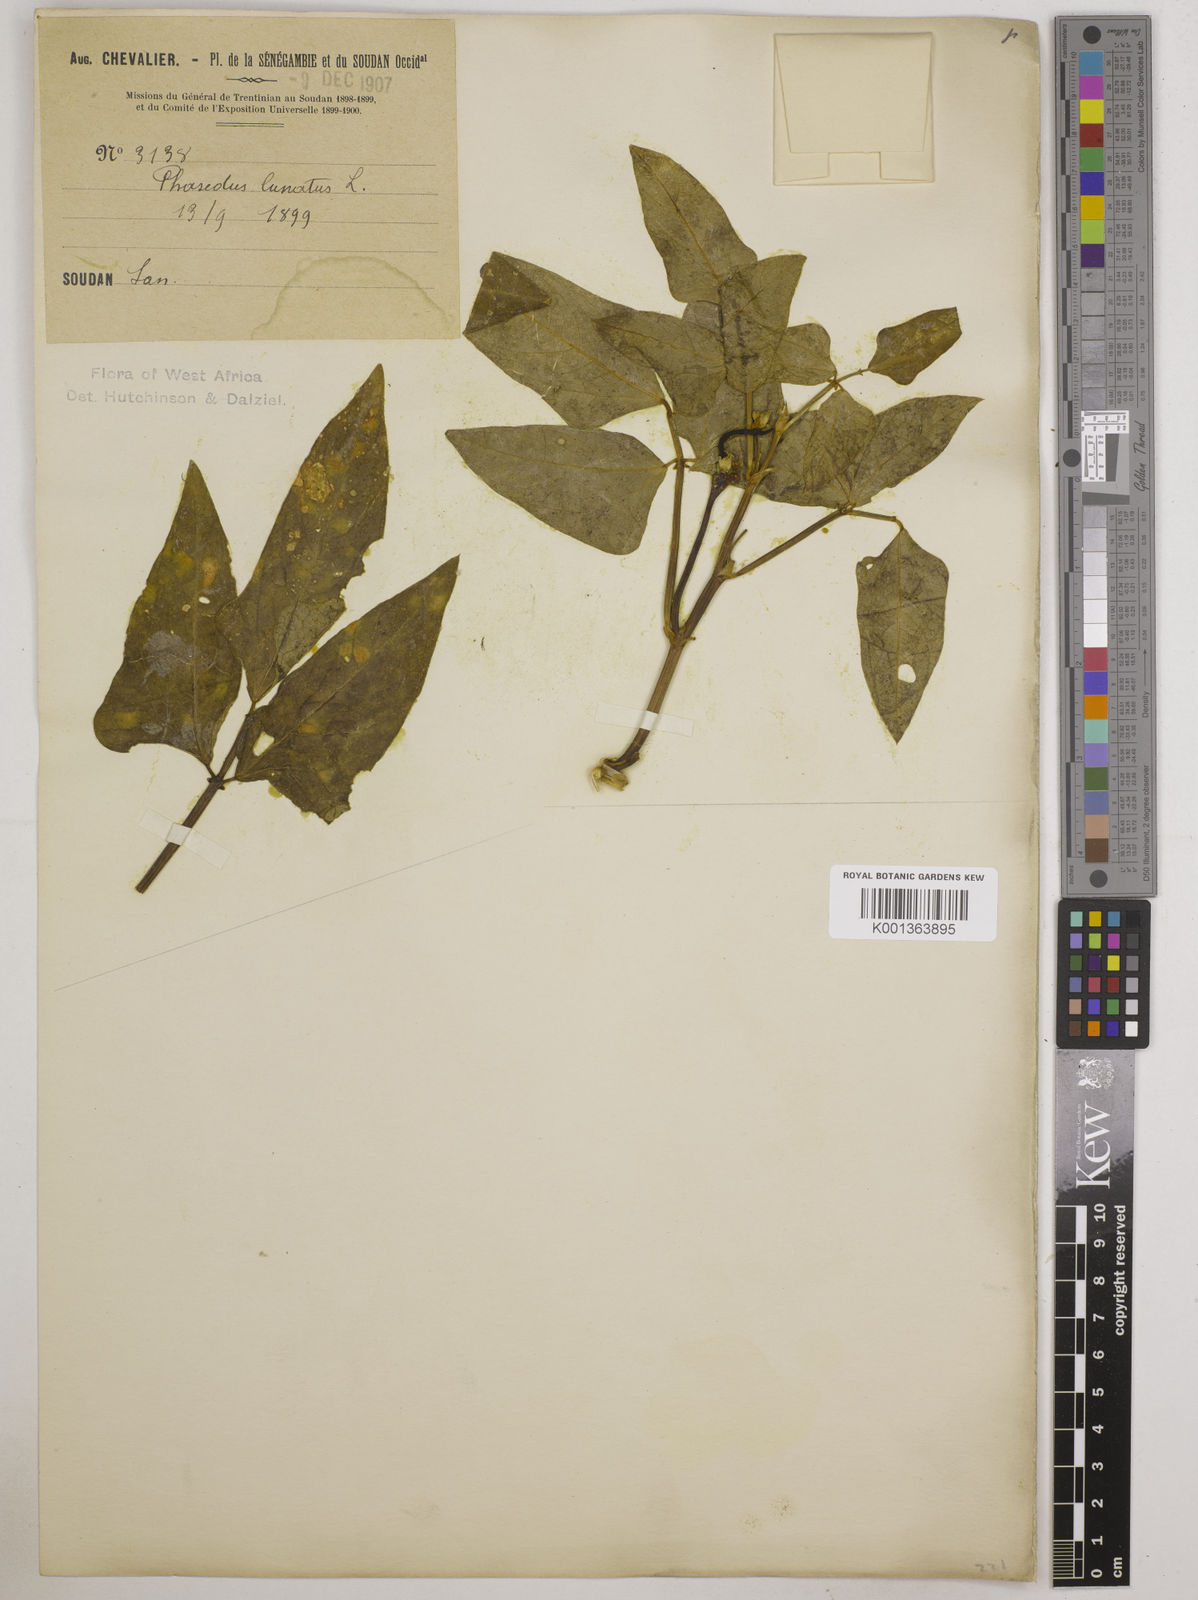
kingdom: Plantae
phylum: Tracheophyta
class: Magnoliopsida
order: Fabales
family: Fabaceae
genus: Phaseolus
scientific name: Phaseolus lunatus
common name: Sieva bean
